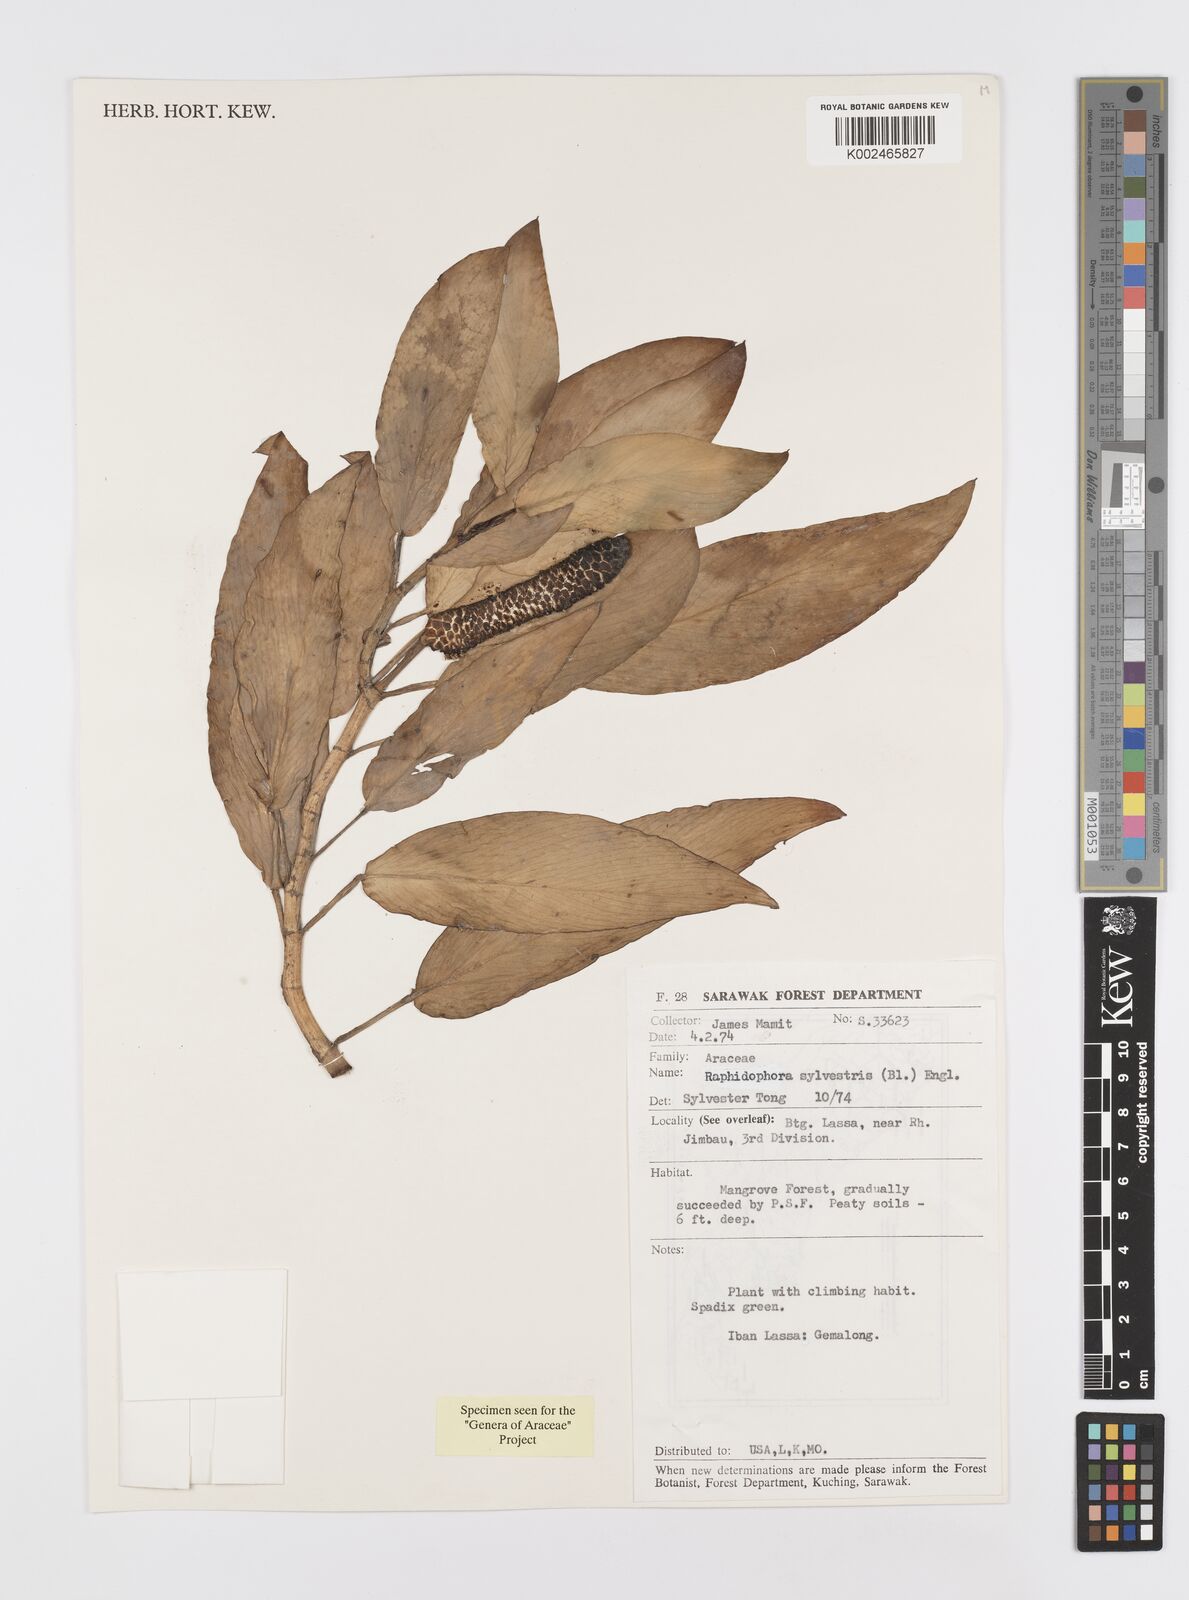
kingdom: Plantae
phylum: Tracheophyta
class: Liliopsida
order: Alismatales
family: Araceae
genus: Rhaphidophora
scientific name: Rhaphidophora minor
